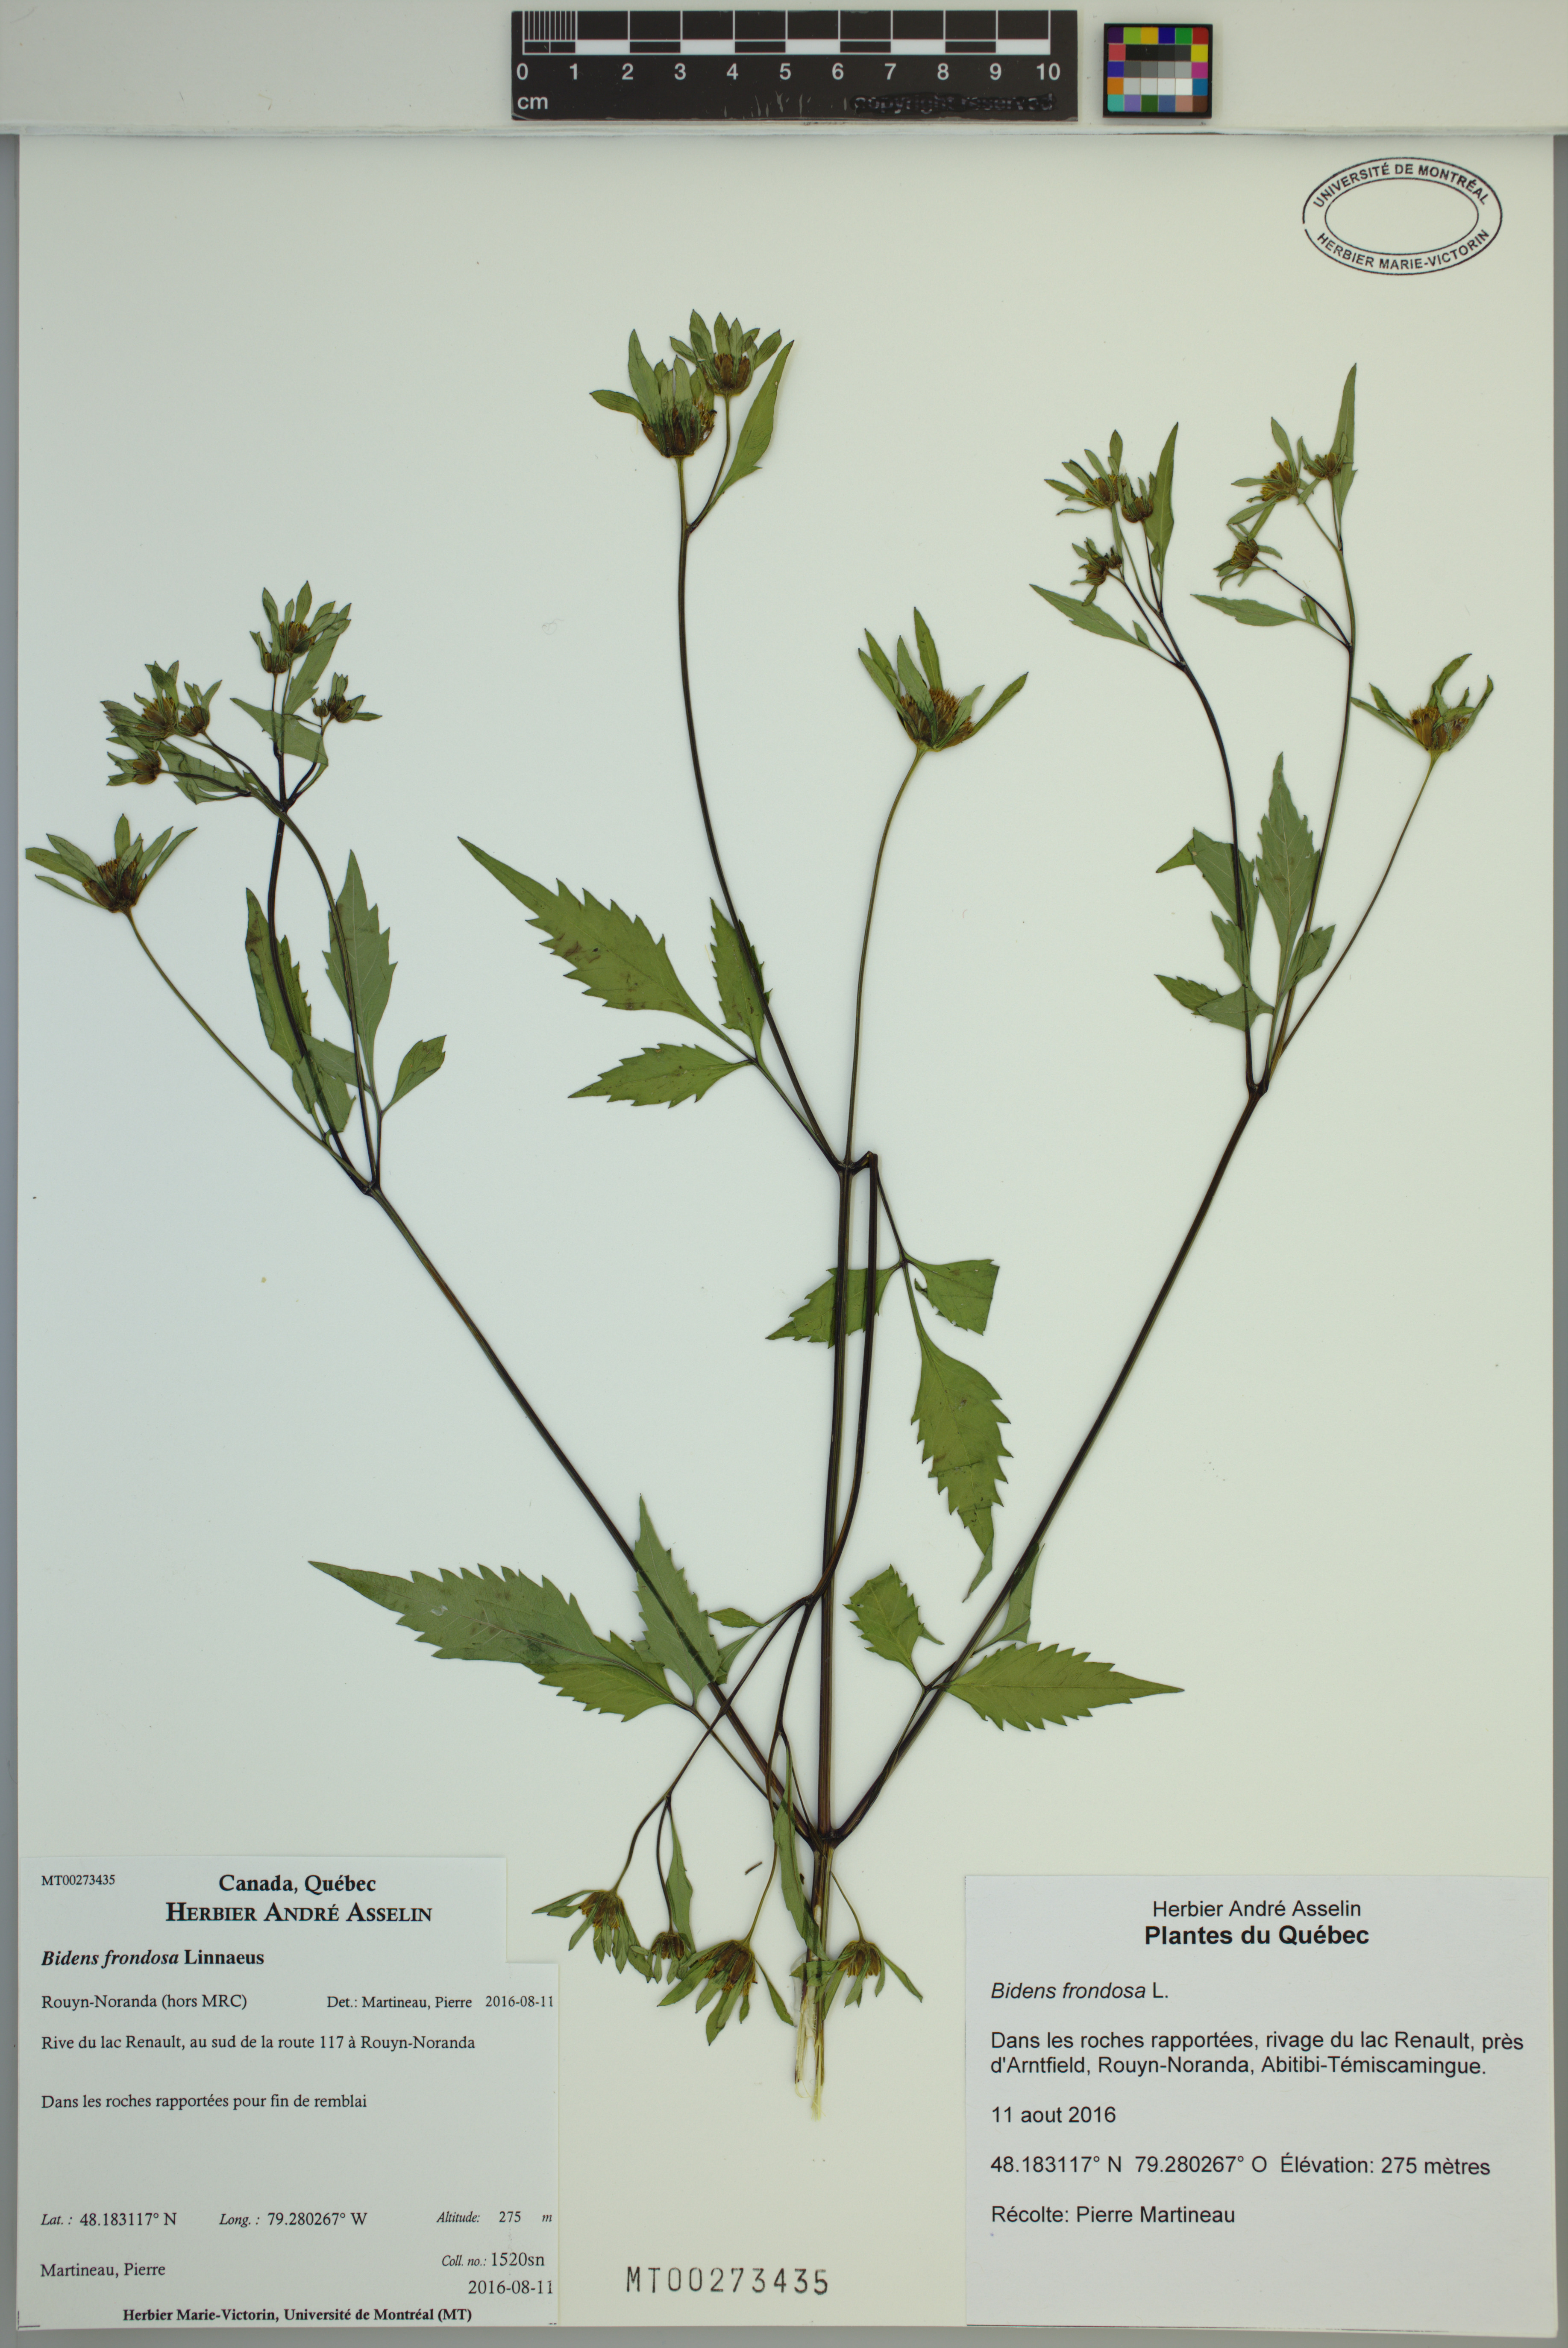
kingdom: Plantae
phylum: Tracheophyta
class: Magnoliopsida
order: Asterales
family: Asteraceae
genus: Bidens
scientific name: Bidens frondosa
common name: Beggarticks
